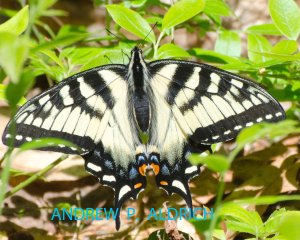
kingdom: Animalia
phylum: Arthropoda
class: Insecta
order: Lepidoptera
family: Papilionidae
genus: Pterourus
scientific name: Pterourus canadensis
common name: Canadian Tiger Swallowtail
